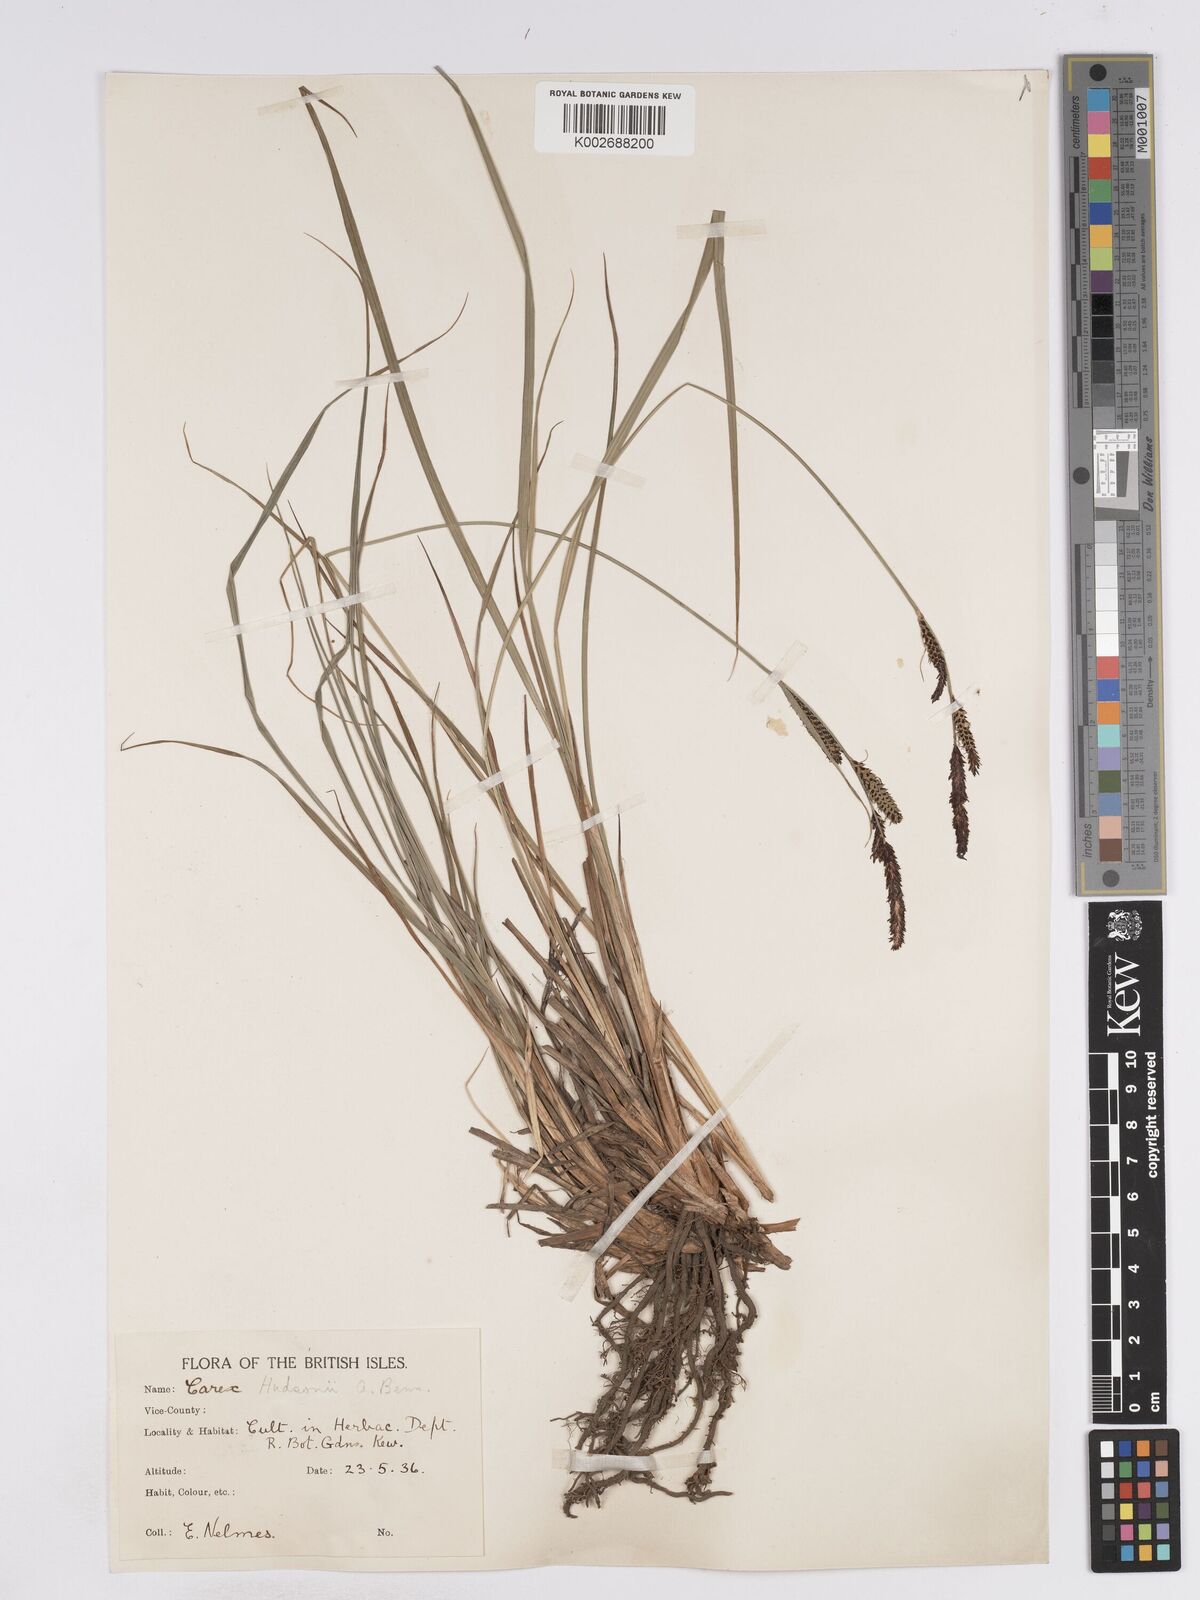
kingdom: Plantae
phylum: Tracheophyta
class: Liliopsida
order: Poales
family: Cyperaceae
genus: Carex
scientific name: Carex elata
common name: Tufted sedge
